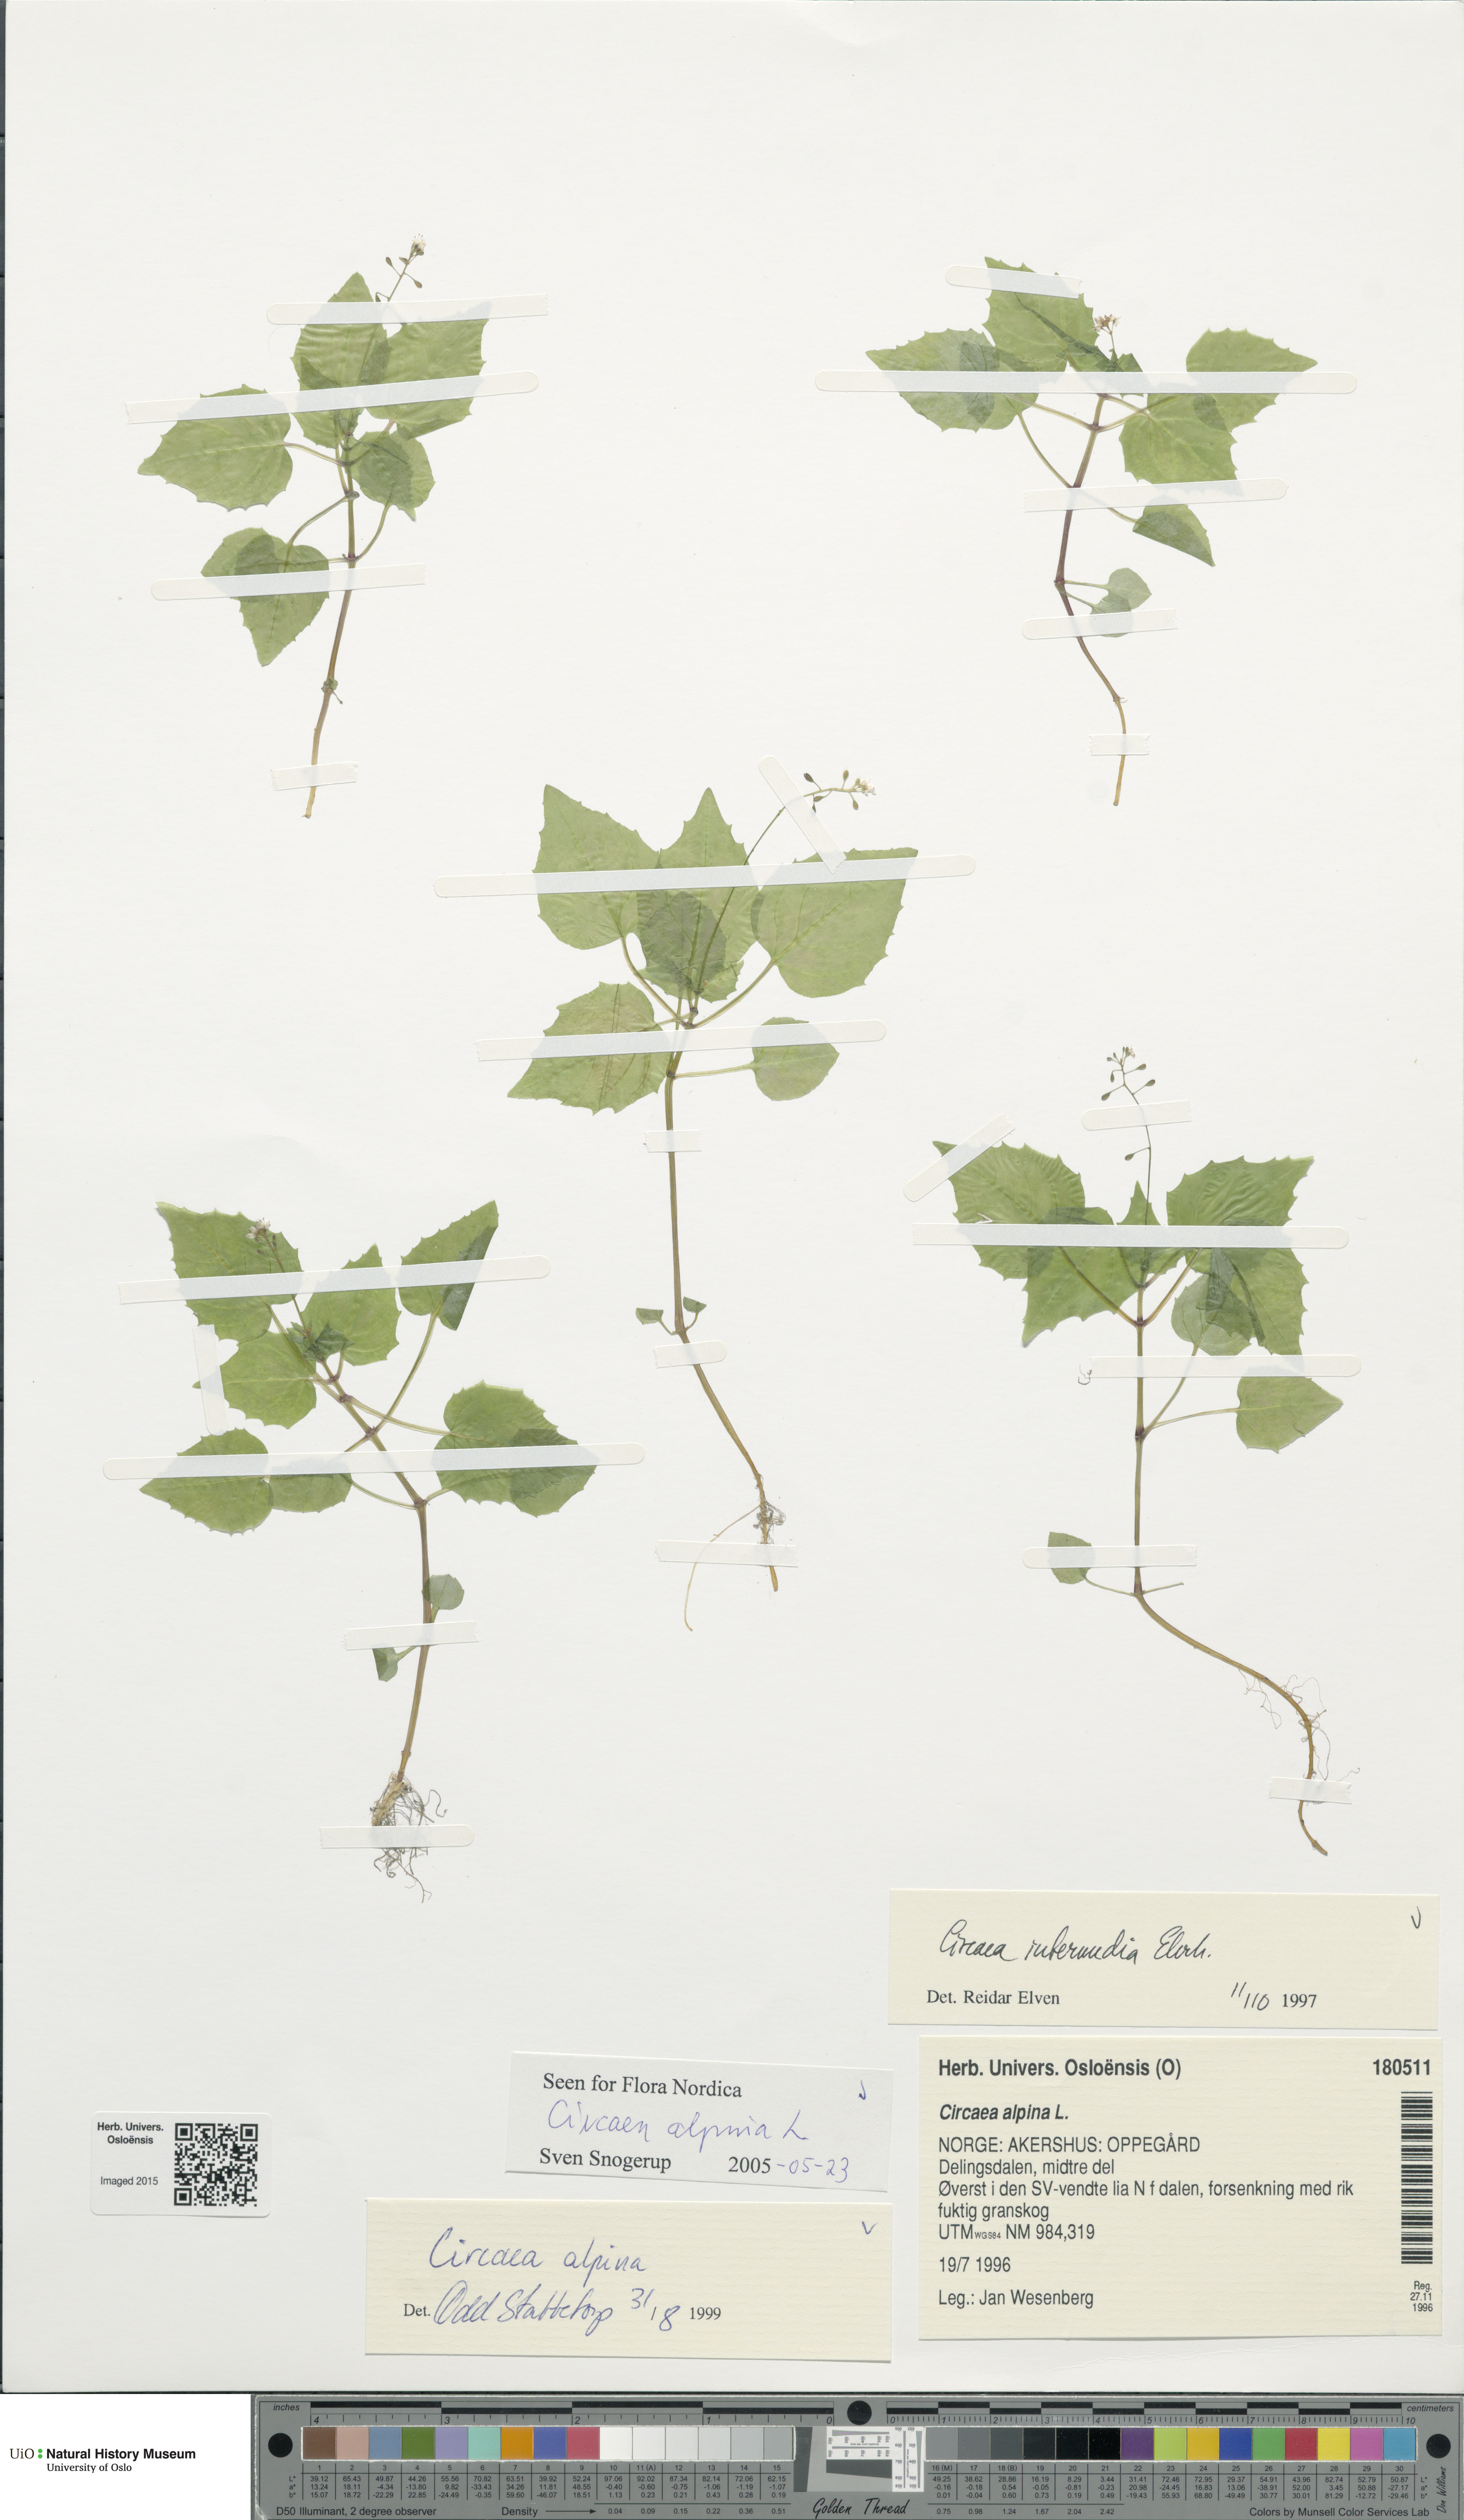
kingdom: Plantae
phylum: Tracheophyta
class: Magnoliopsida
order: Myrtales
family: Onagraceae
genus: Circaea
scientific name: Circaea alpina
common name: Alpine enchanter's-nightshade
